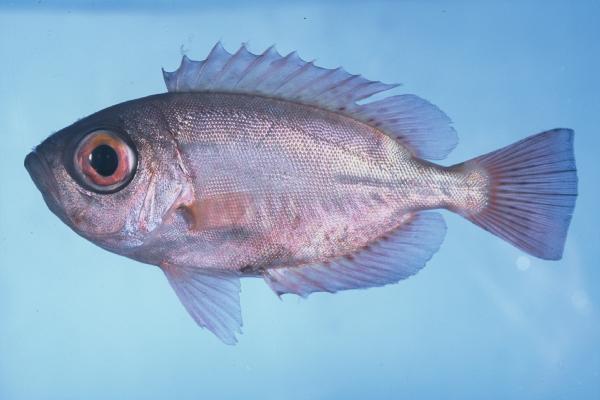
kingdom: Animalia
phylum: Chordata
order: Perciformes
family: Priacanthidae
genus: Heteropriacanthus
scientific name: Heteropriacanthus cruentatus
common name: Glasseye
